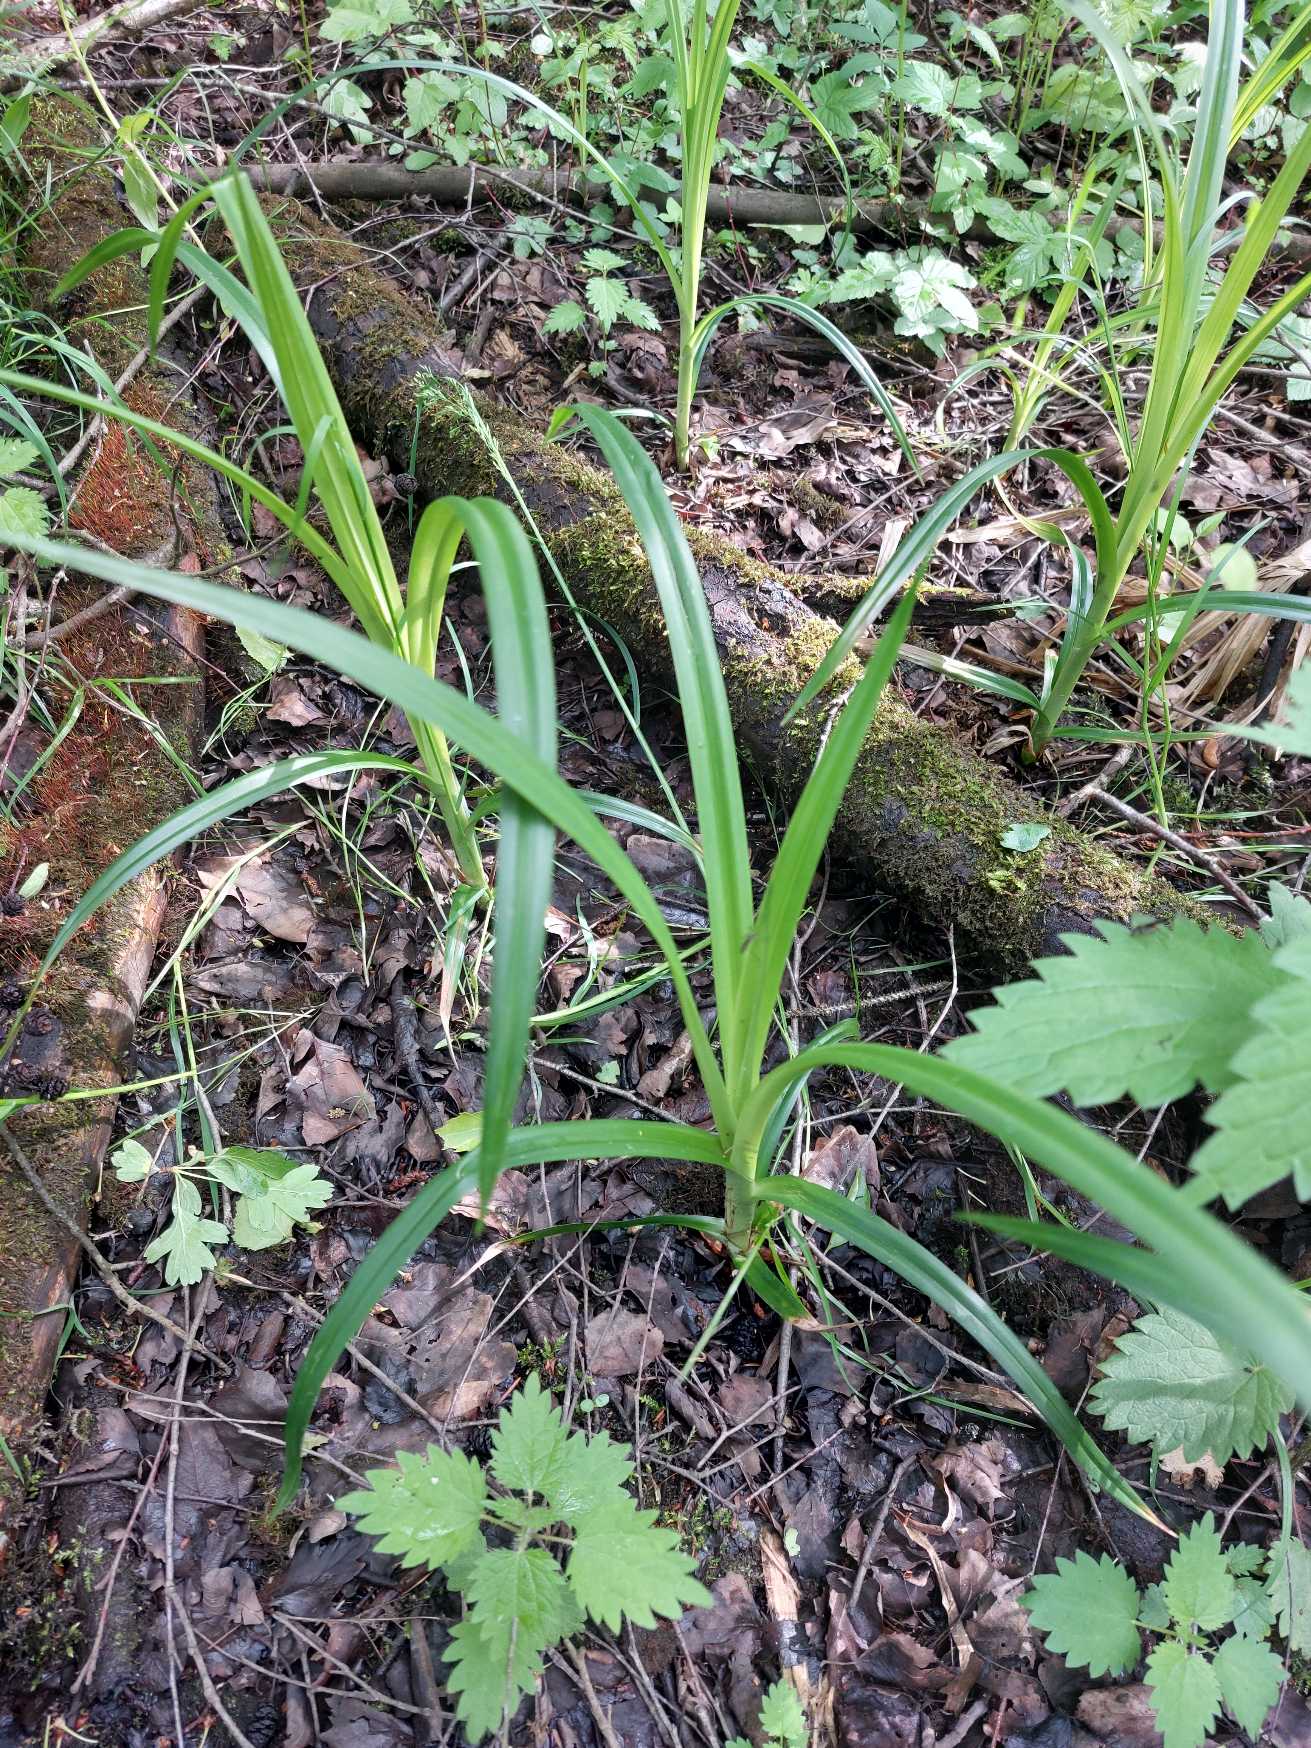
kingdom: Plantae
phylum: Tracheophyta
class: Liliopsida
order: Poales
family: Cyperaceae
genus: Scirpus
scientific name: Scirpus sylvaticus
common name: Skov-kogleaks
